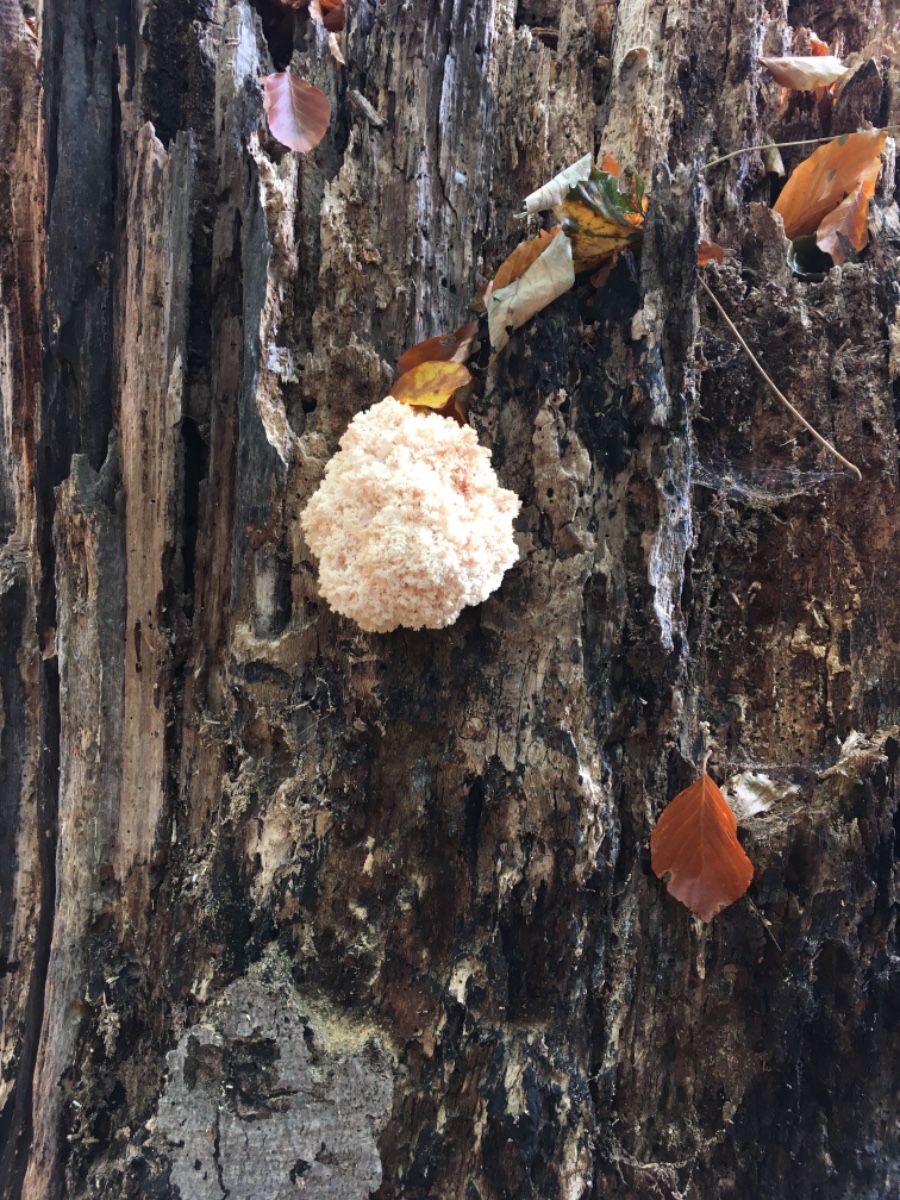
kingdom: Fungi
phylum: Basidiomycota
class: Agaricomycetes
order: Russulales
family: Hericiaceae
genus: Hericium
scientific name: Hericium coralloides
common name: koralpigsvamp
